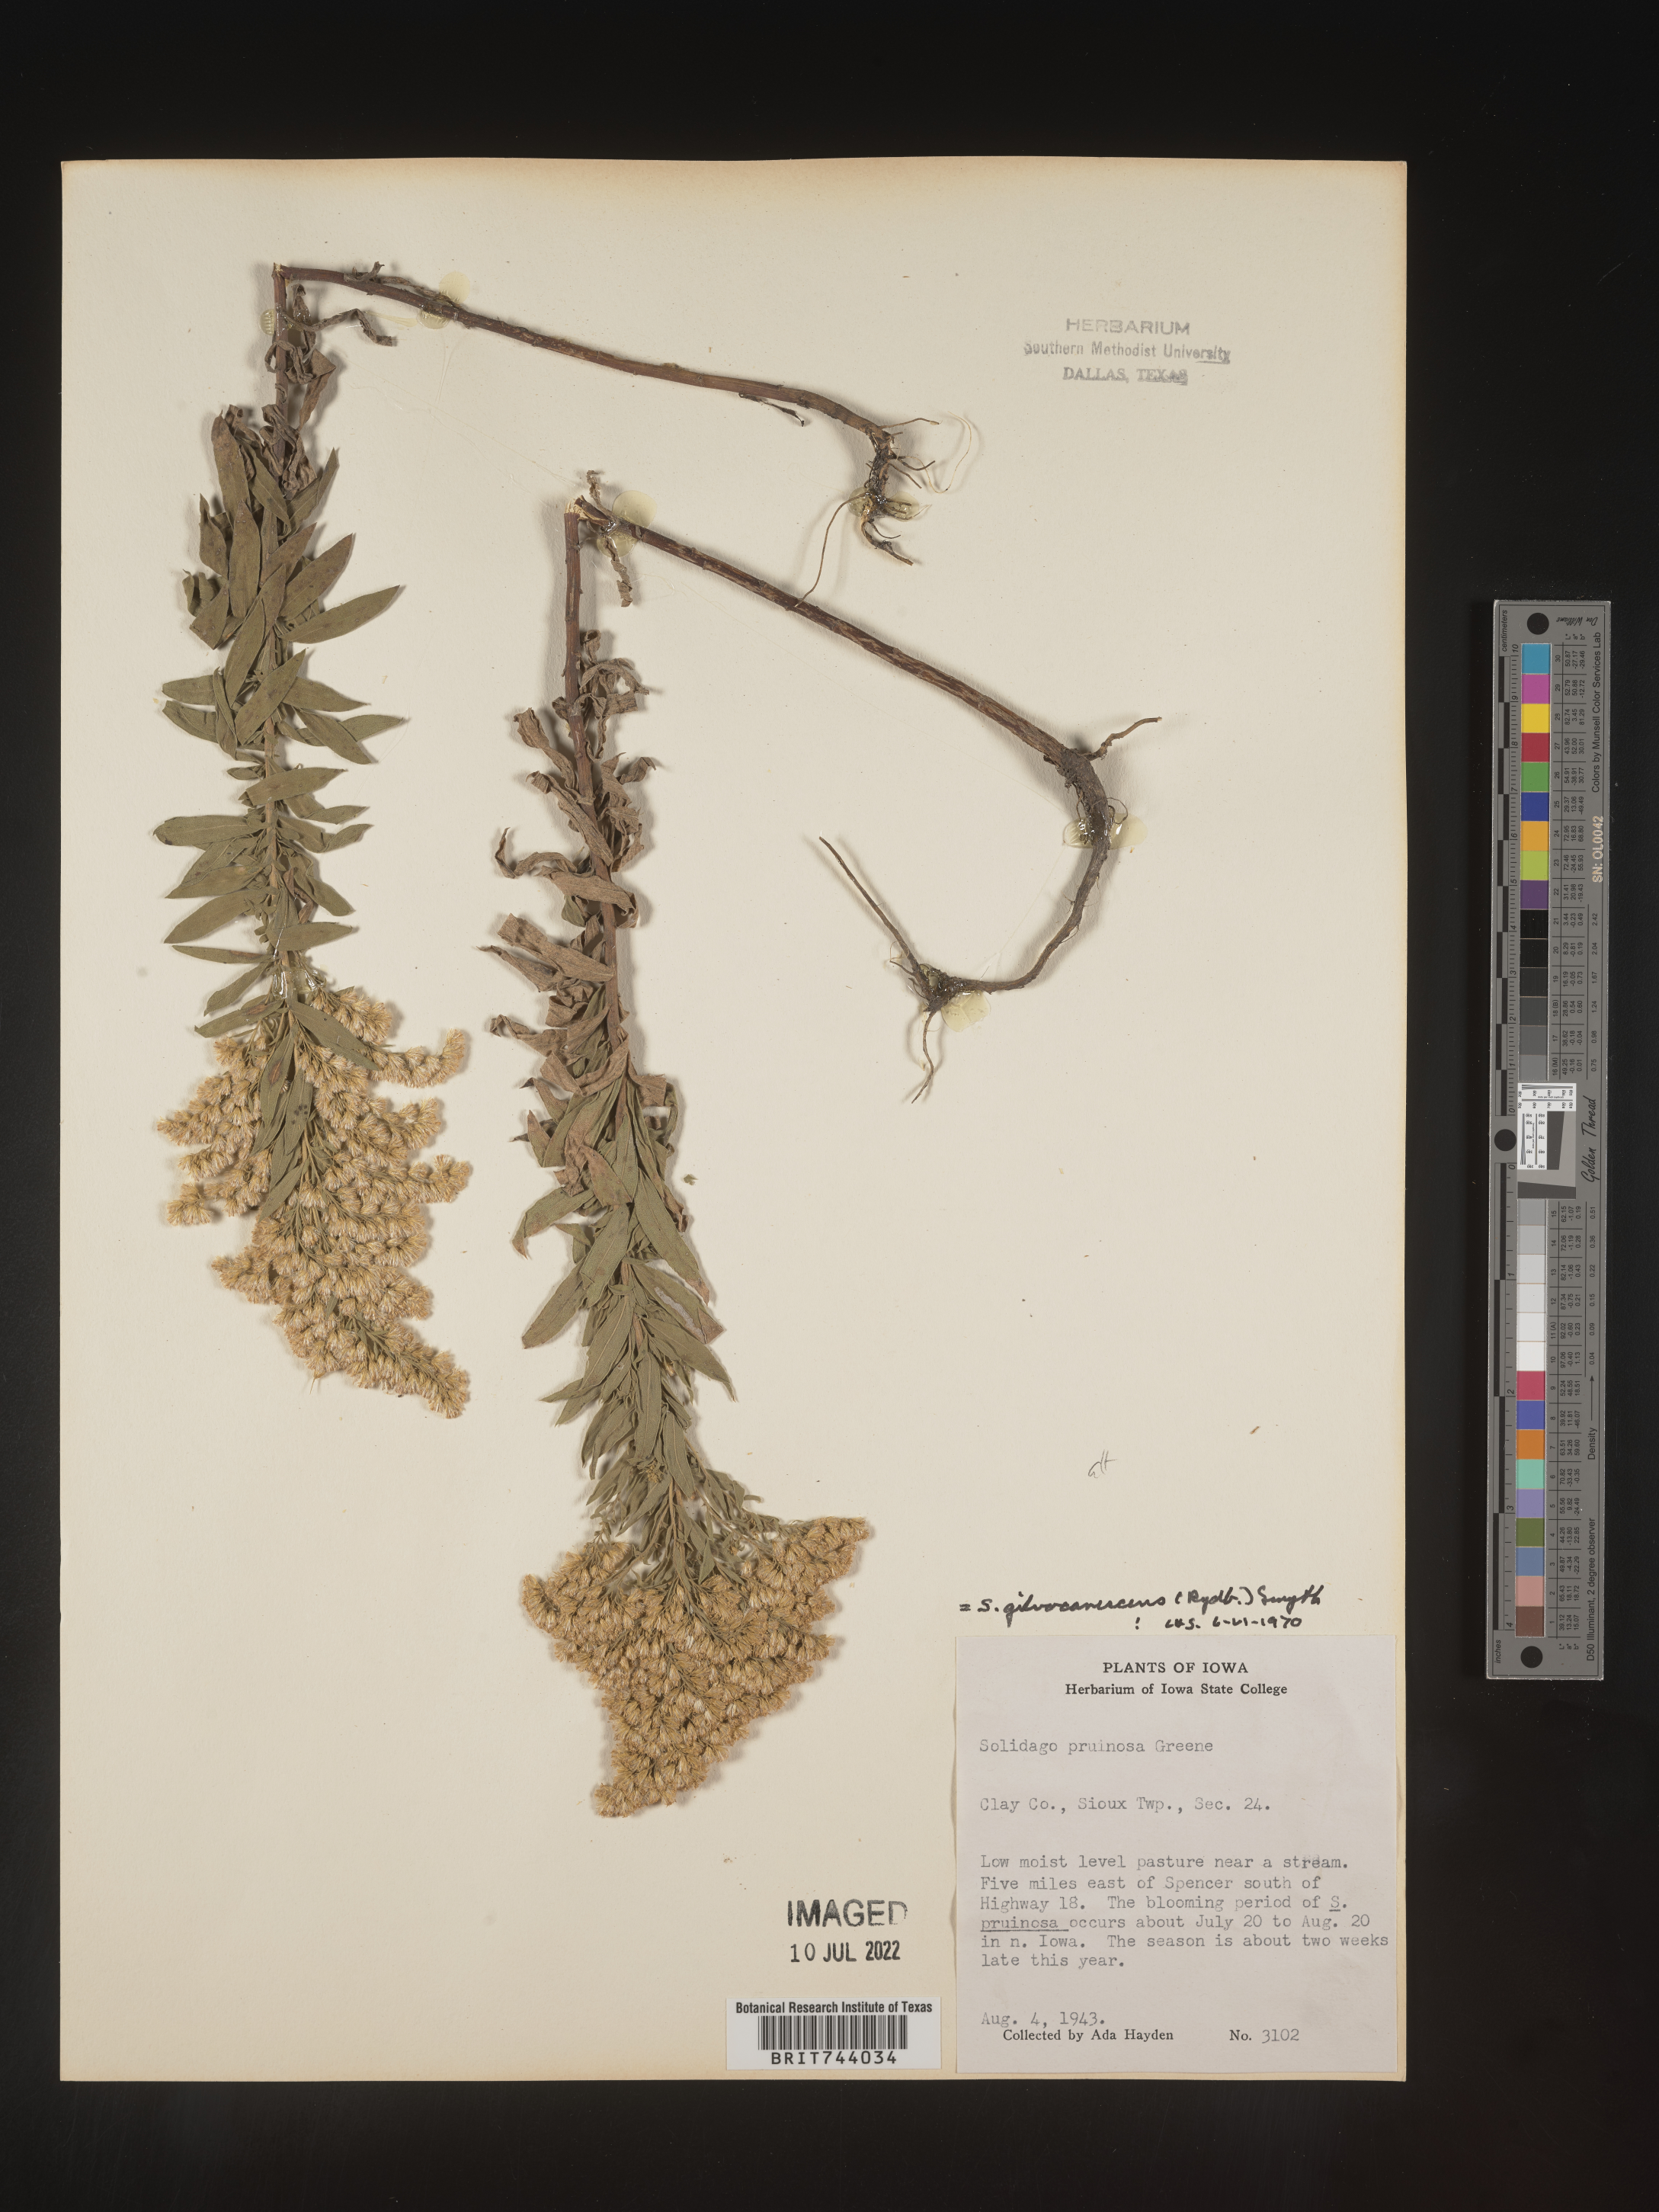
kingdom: Plantae
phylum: Tracheophyta
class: Magnoliopsida
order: Asterales
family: Asteraceae
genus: Solidago
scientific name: Solidago altissima
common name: Late goldenrod
